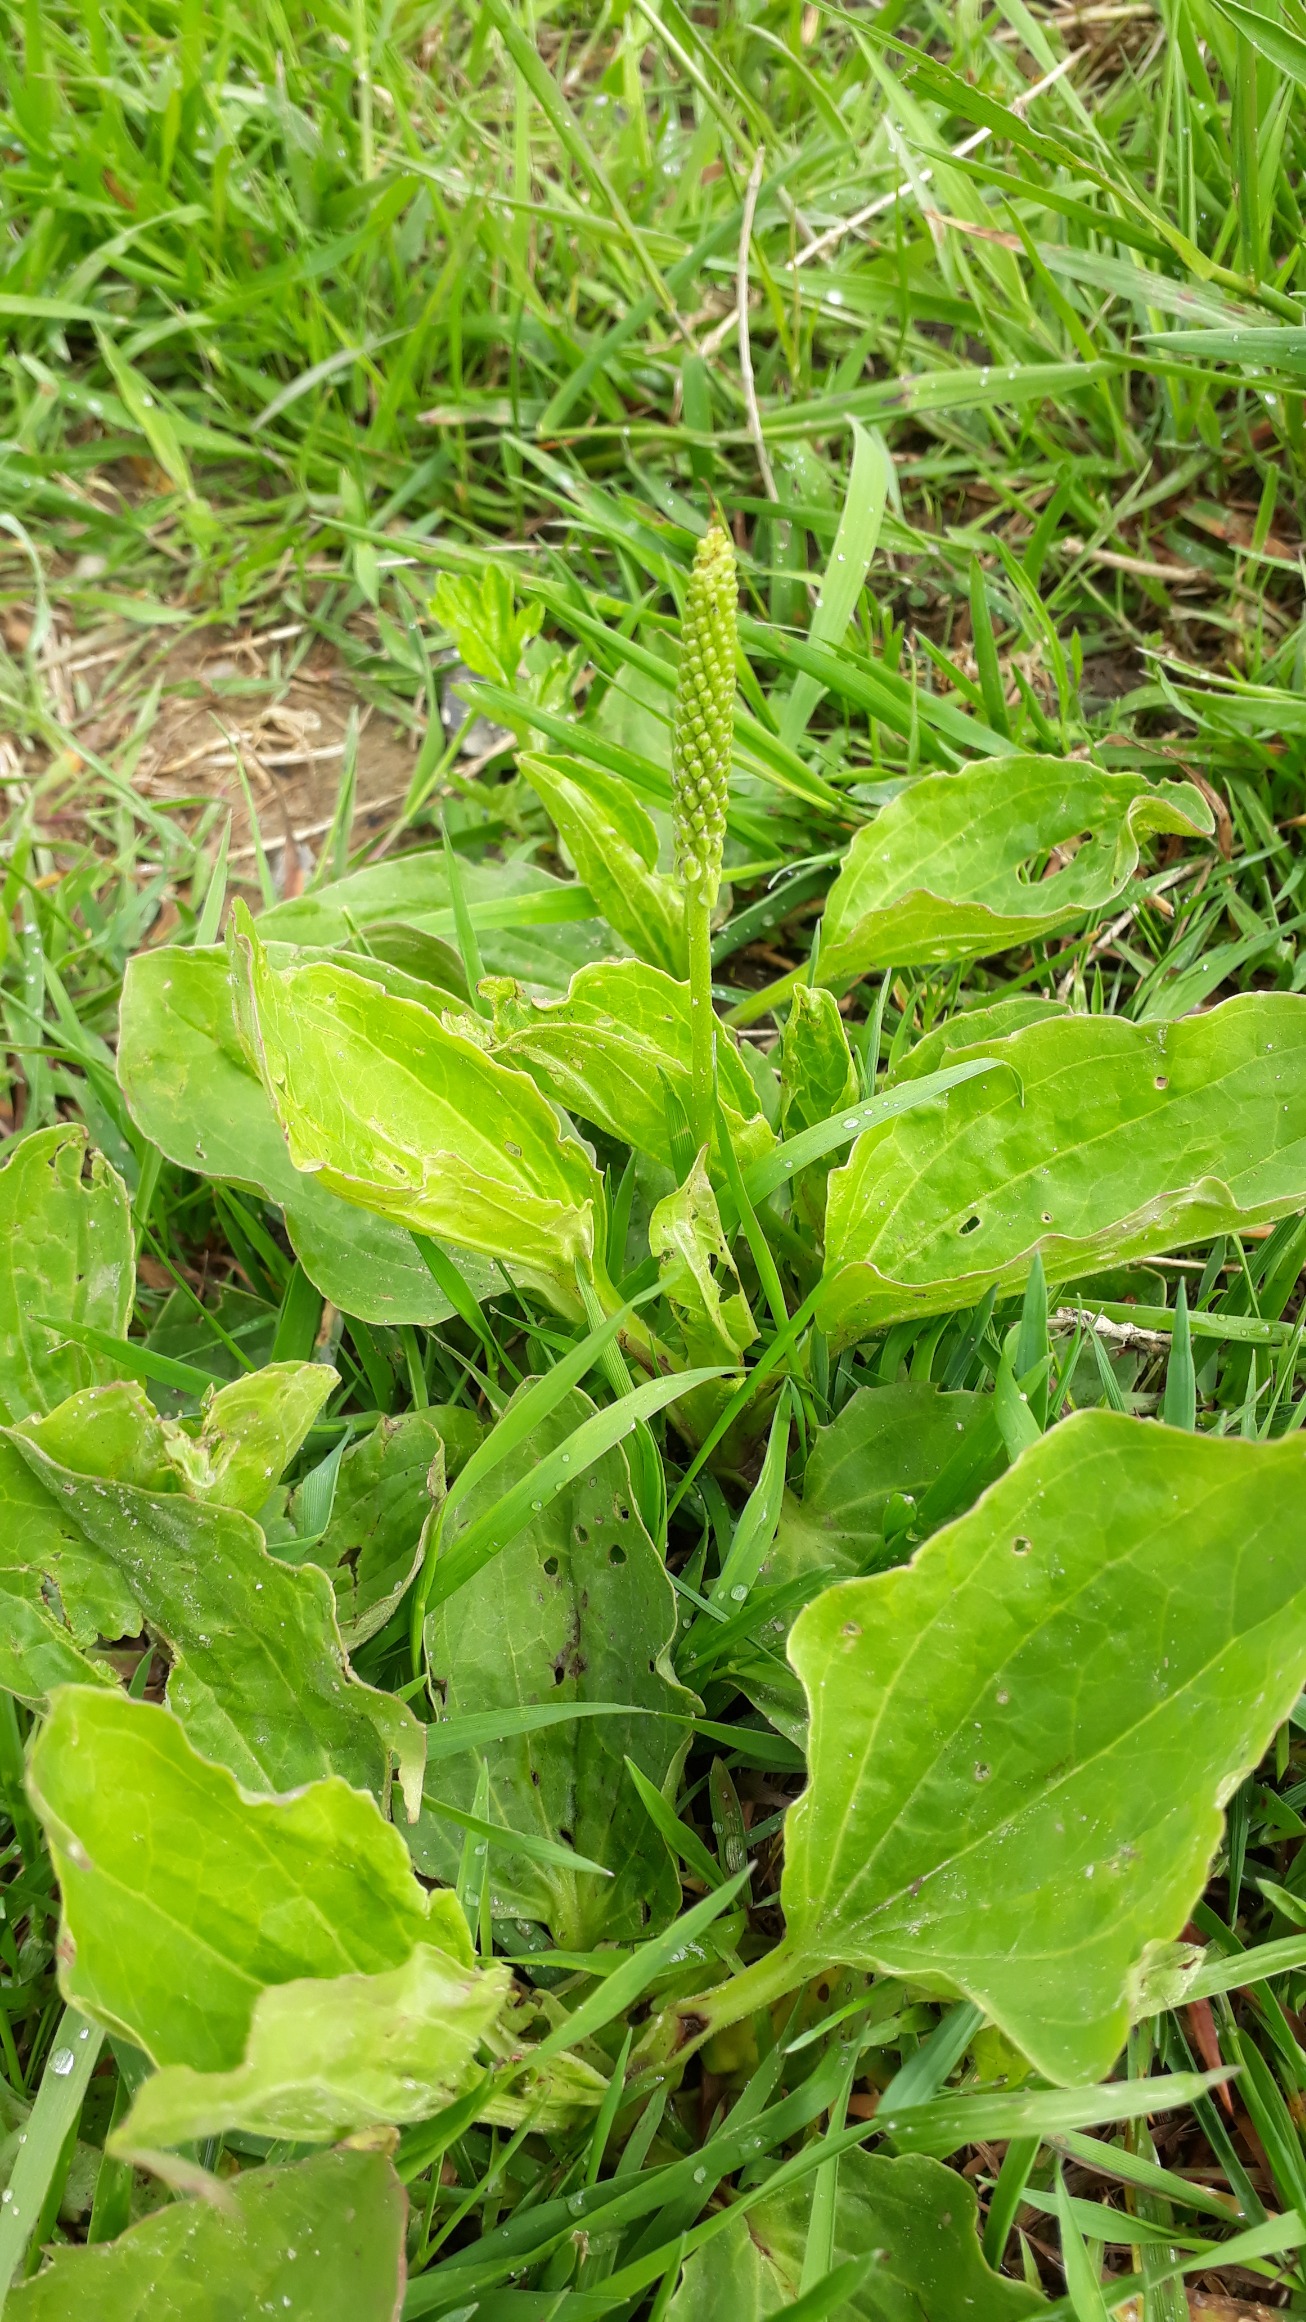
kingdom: Plantae
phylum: Tracheophyta
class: Magnoliopsida
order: Lamiales
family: Plantaginaceae
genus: Plantago
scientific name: Plantago major
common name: Glat vejbred
